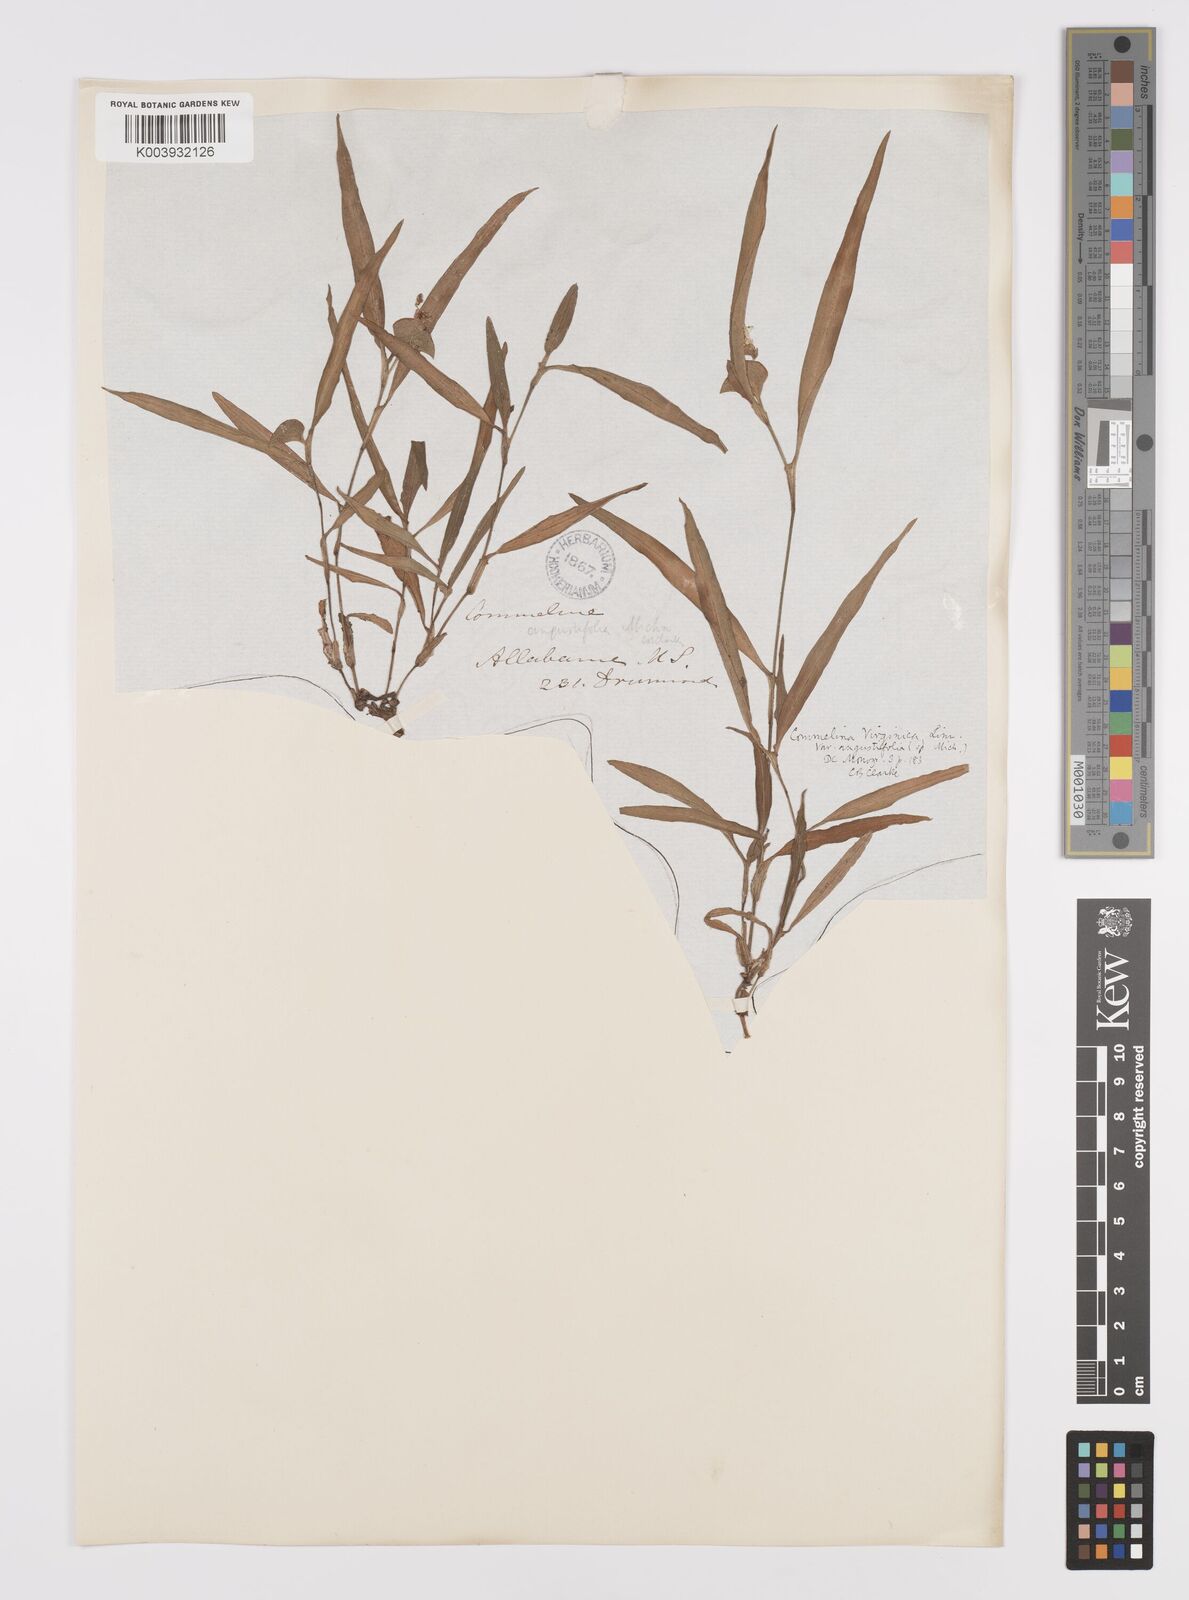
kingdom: Plantae
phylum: Tracheophyta
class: Liliopsida
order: Commelinales
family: Commelinaceae
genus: Commelina
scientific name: Commelina erecta
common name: Blousel blommetjie
